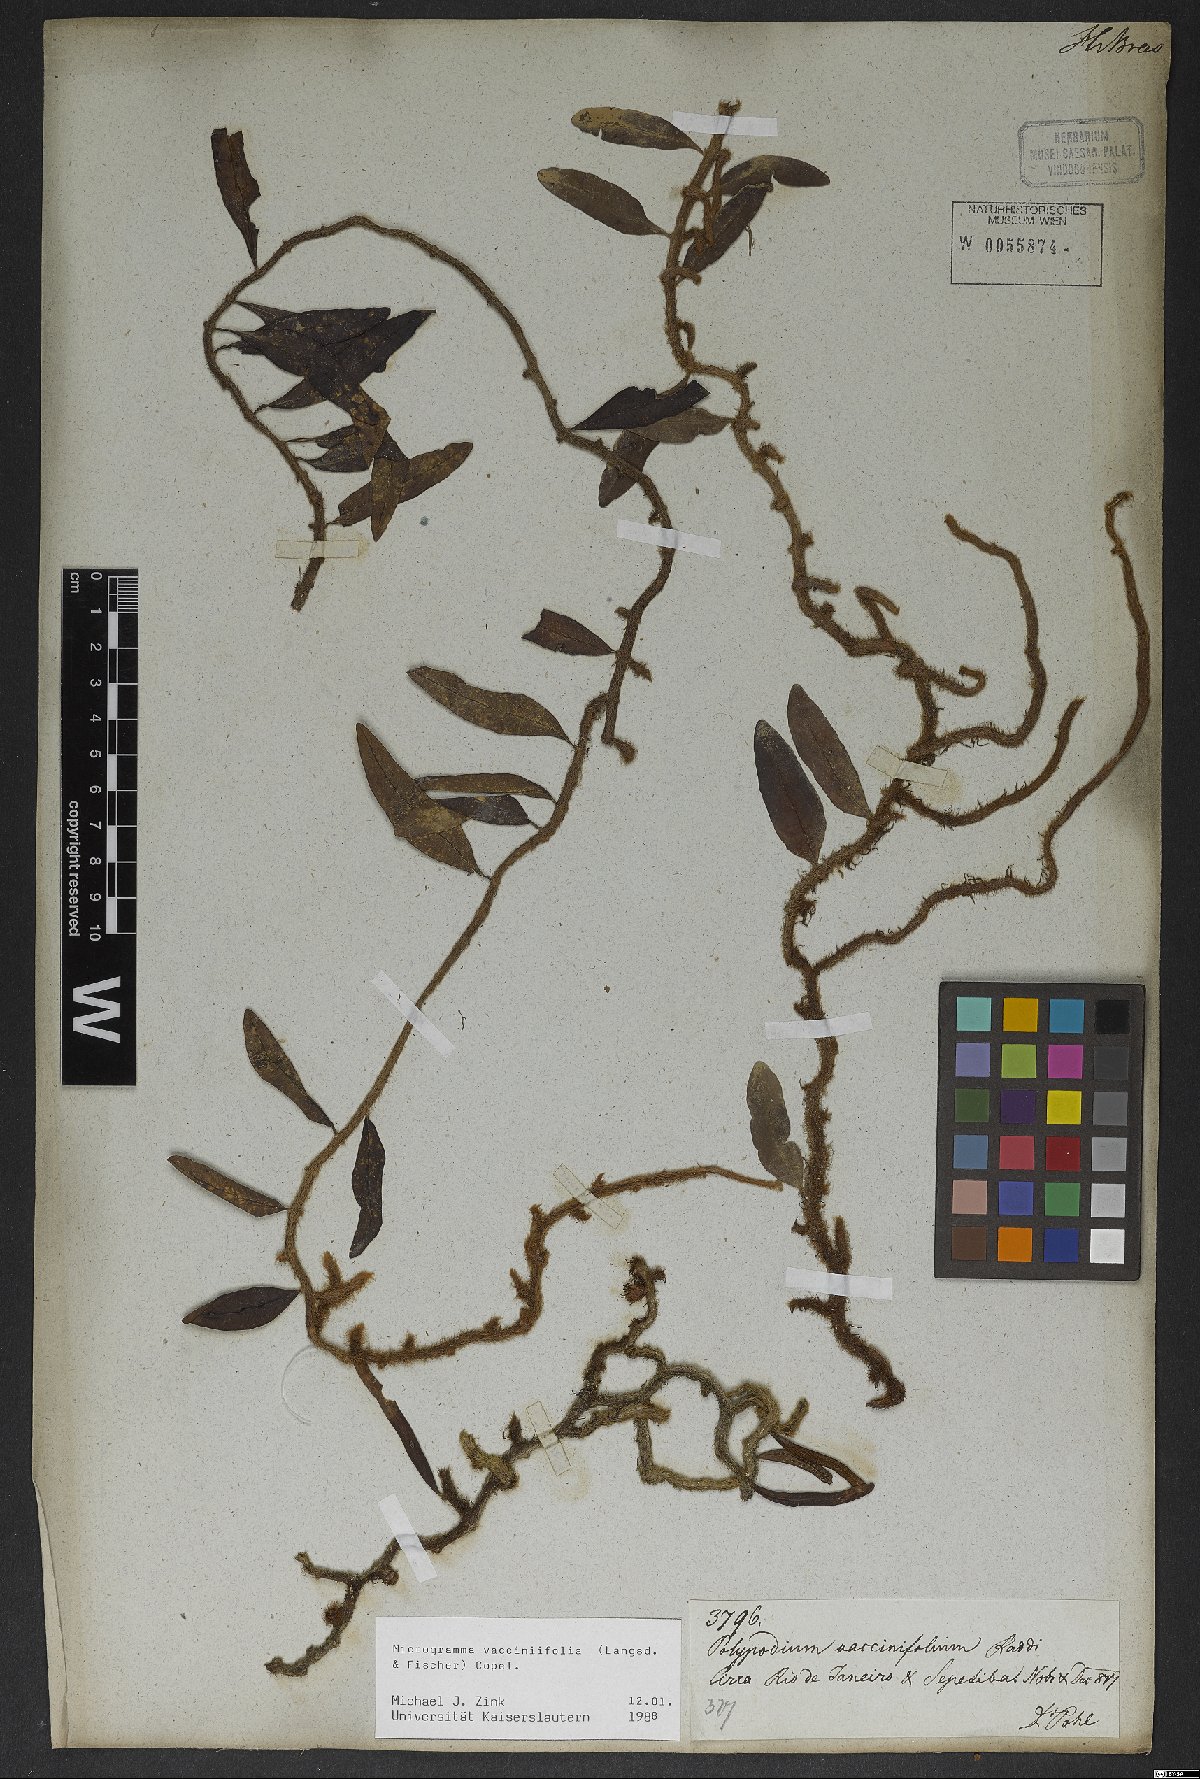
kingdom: Plantae
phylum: Tracheophyta
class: Polypodiopsida
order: Polypodiales
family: Polypodiaceae
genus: Microgramma
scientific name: Microgramma vaccinifolia
